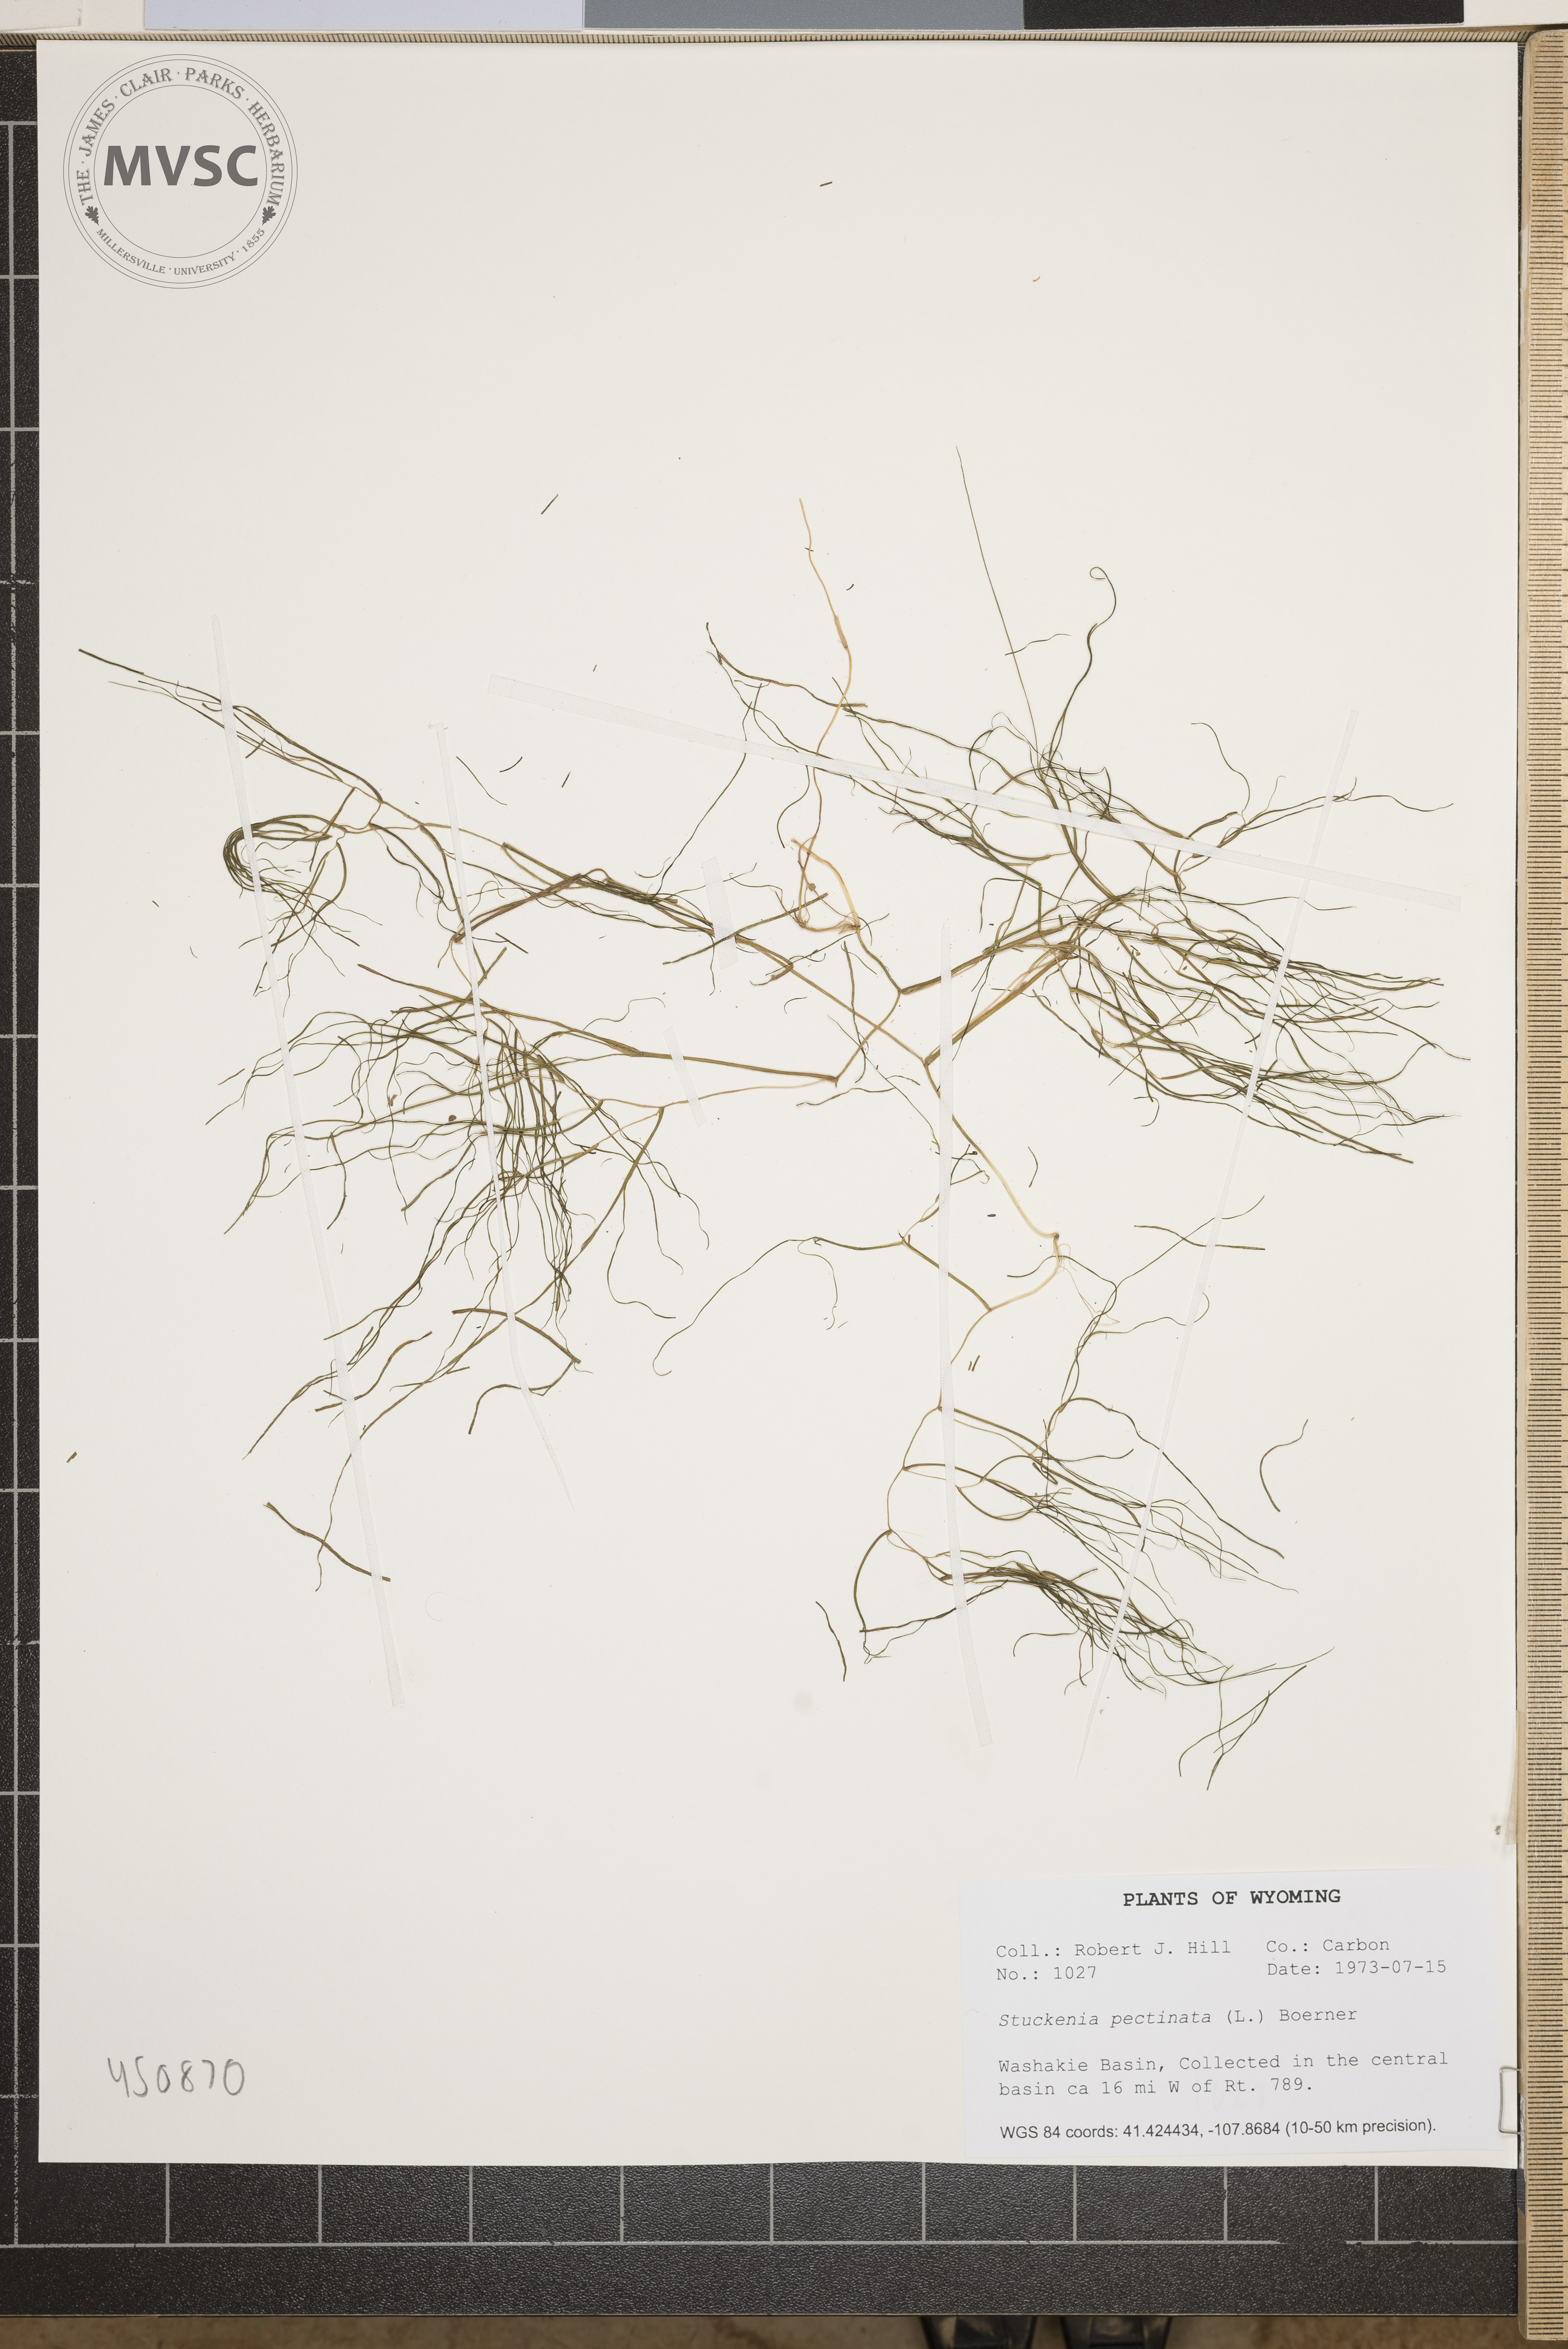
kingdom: Plantae
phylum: Tracheophyta
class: Liliopsida
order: Alismatales
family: Potamogetonaceae
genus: Stuckenia
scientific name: Stuckenia pectinata
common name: Sago pondweed
